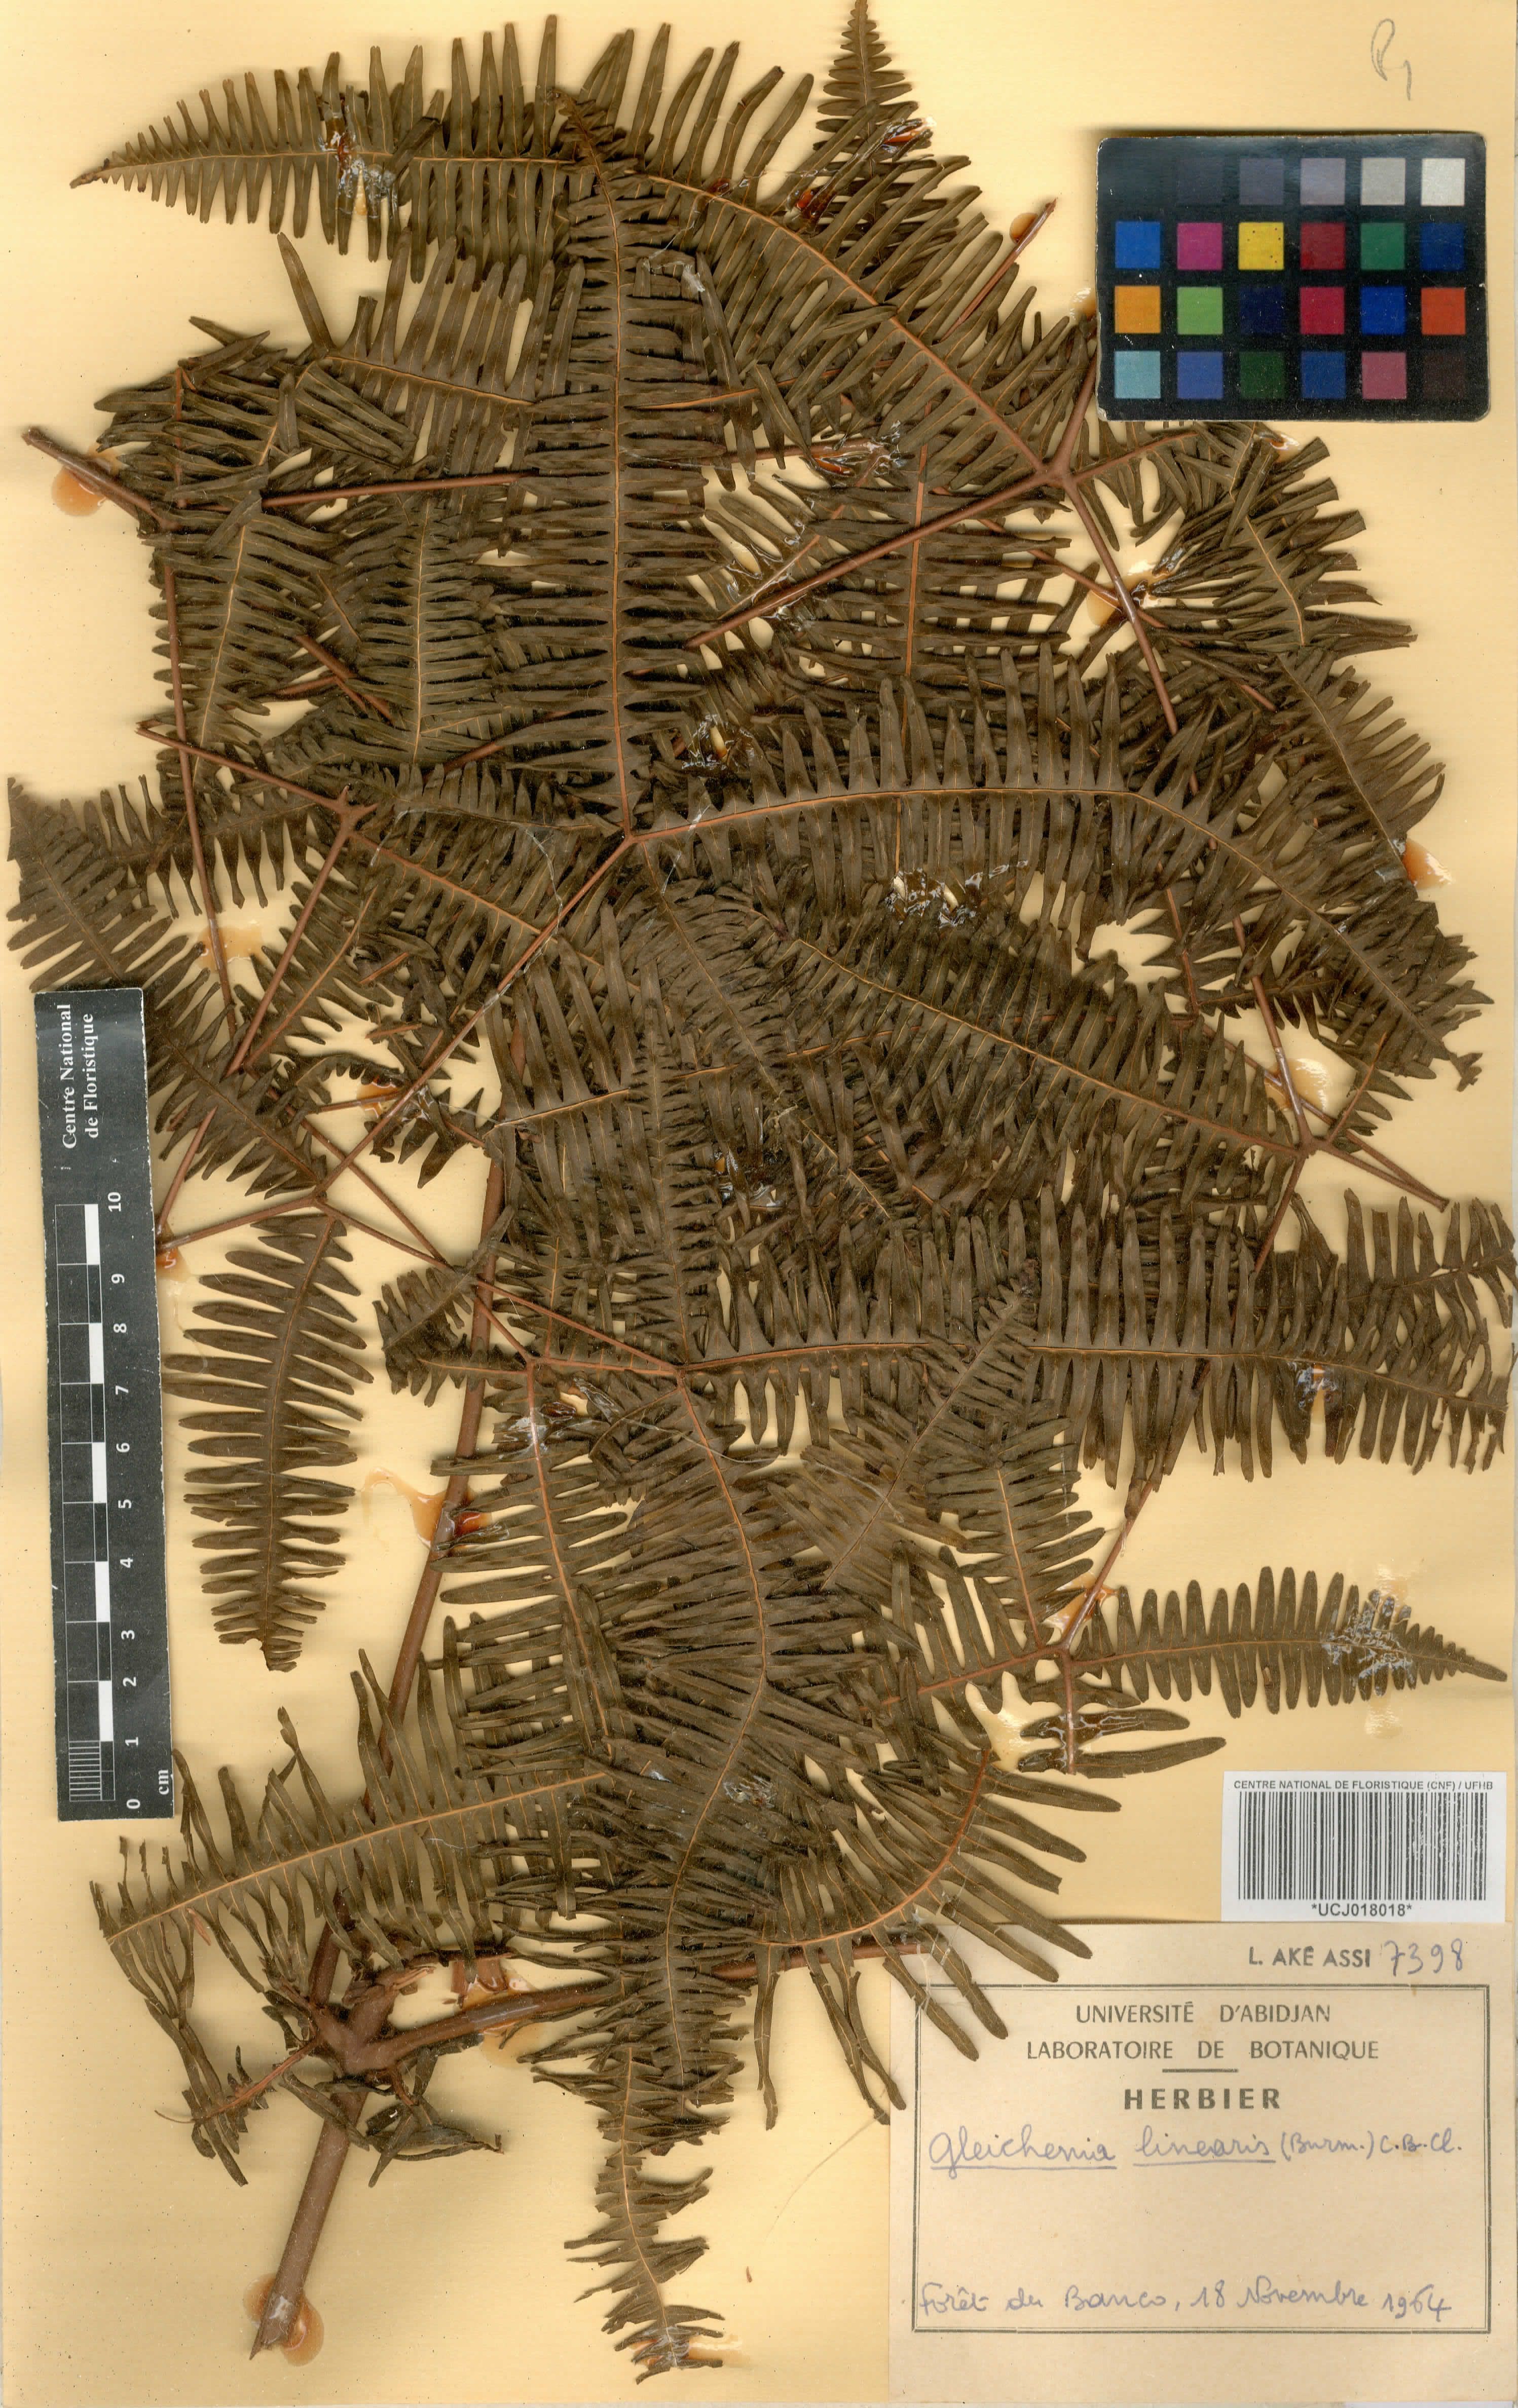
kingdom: Plantae
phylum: Tracheophyta
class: Polypodiopsida
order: Gleicheniales
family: Gleicheniaceae
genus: Dicranopteris
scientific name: Dicranopteris linearis
